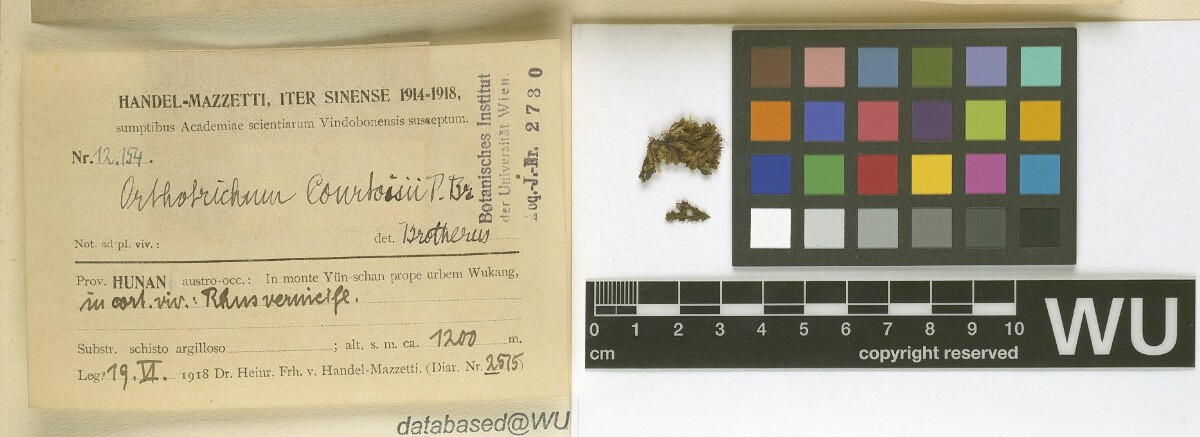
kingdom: Plantae
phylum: Bryophyta
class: Bryopsida
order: Orthotrichales
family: Orthotrichaceae
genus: Orthotrichum
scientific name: Orthotrichum consobrinum
